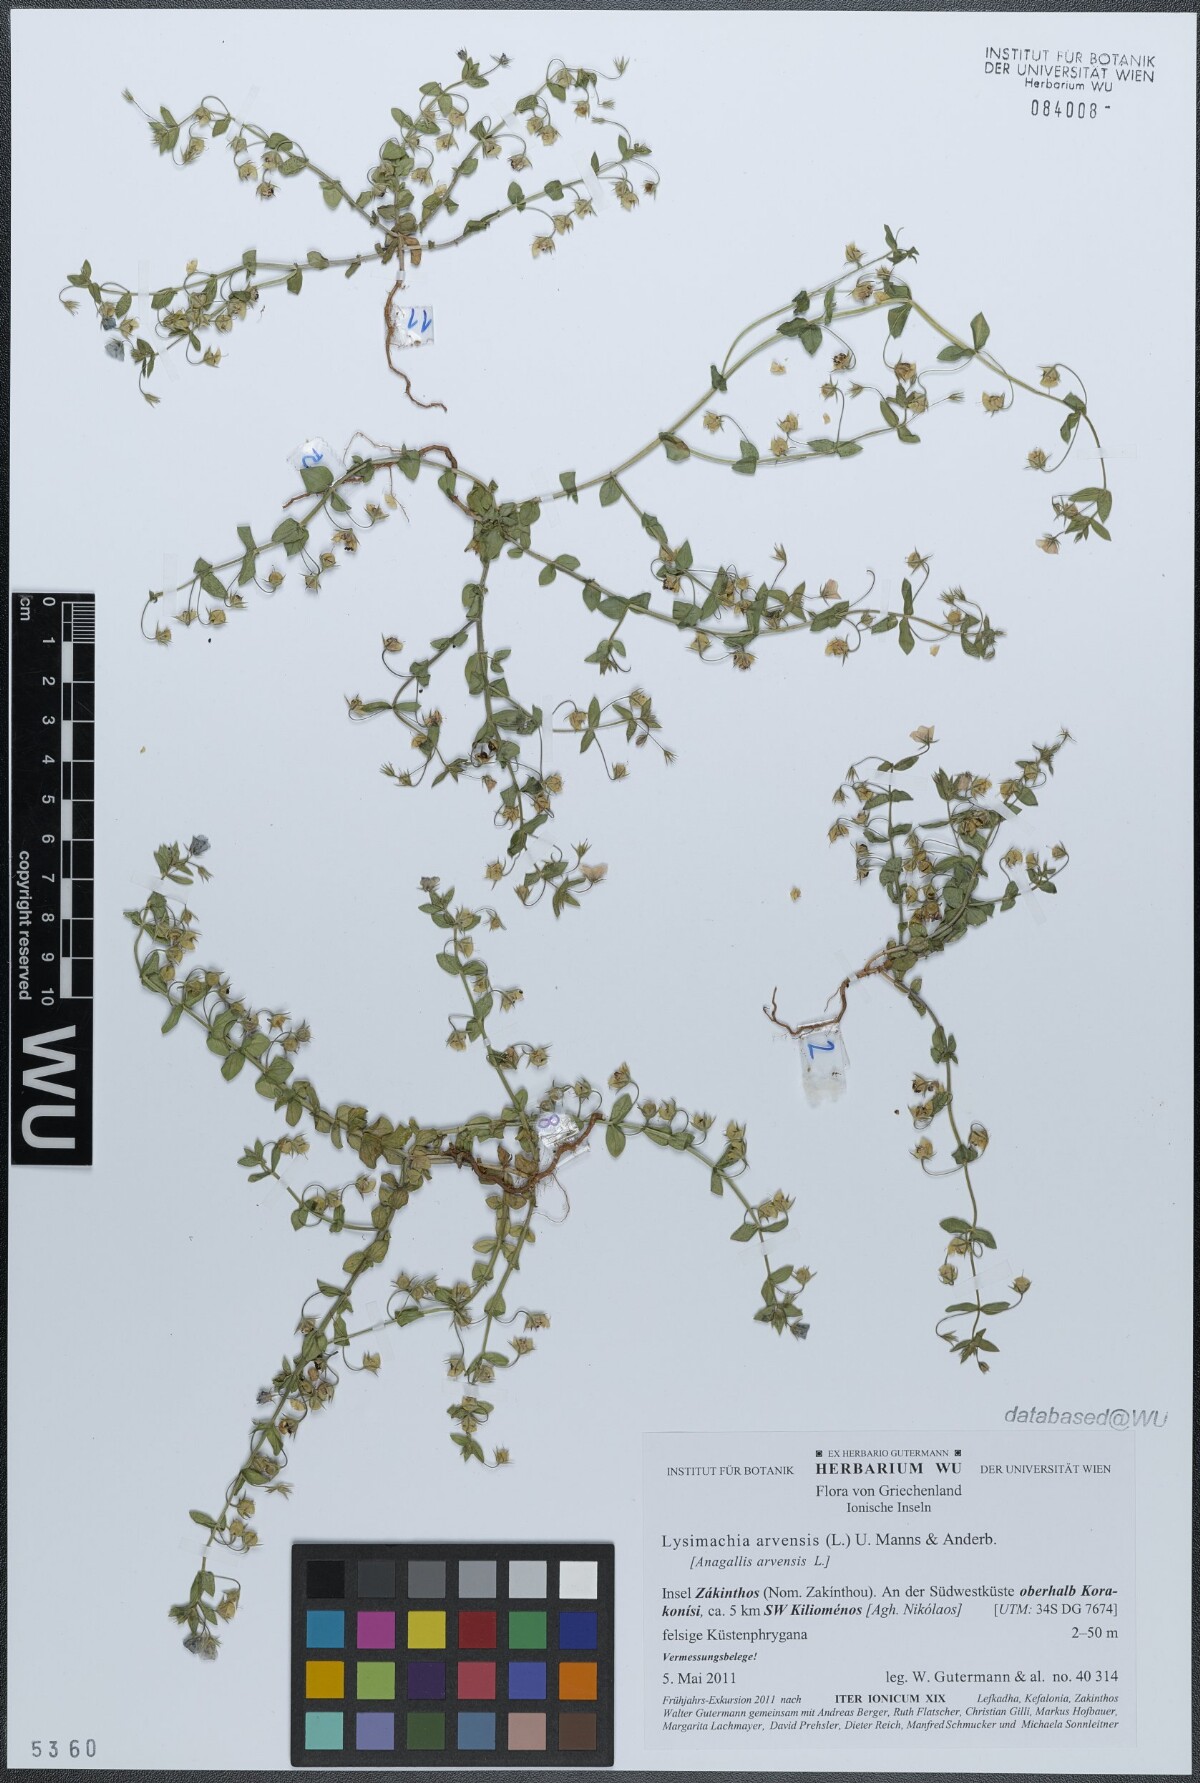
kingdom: Plantae
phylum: Tracheophyta
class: Magnoliopsida
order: Ericales
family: Primulaceae
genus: Lysimachia
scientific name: Lysimachia arvensis
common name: Scarlet pimpernel
